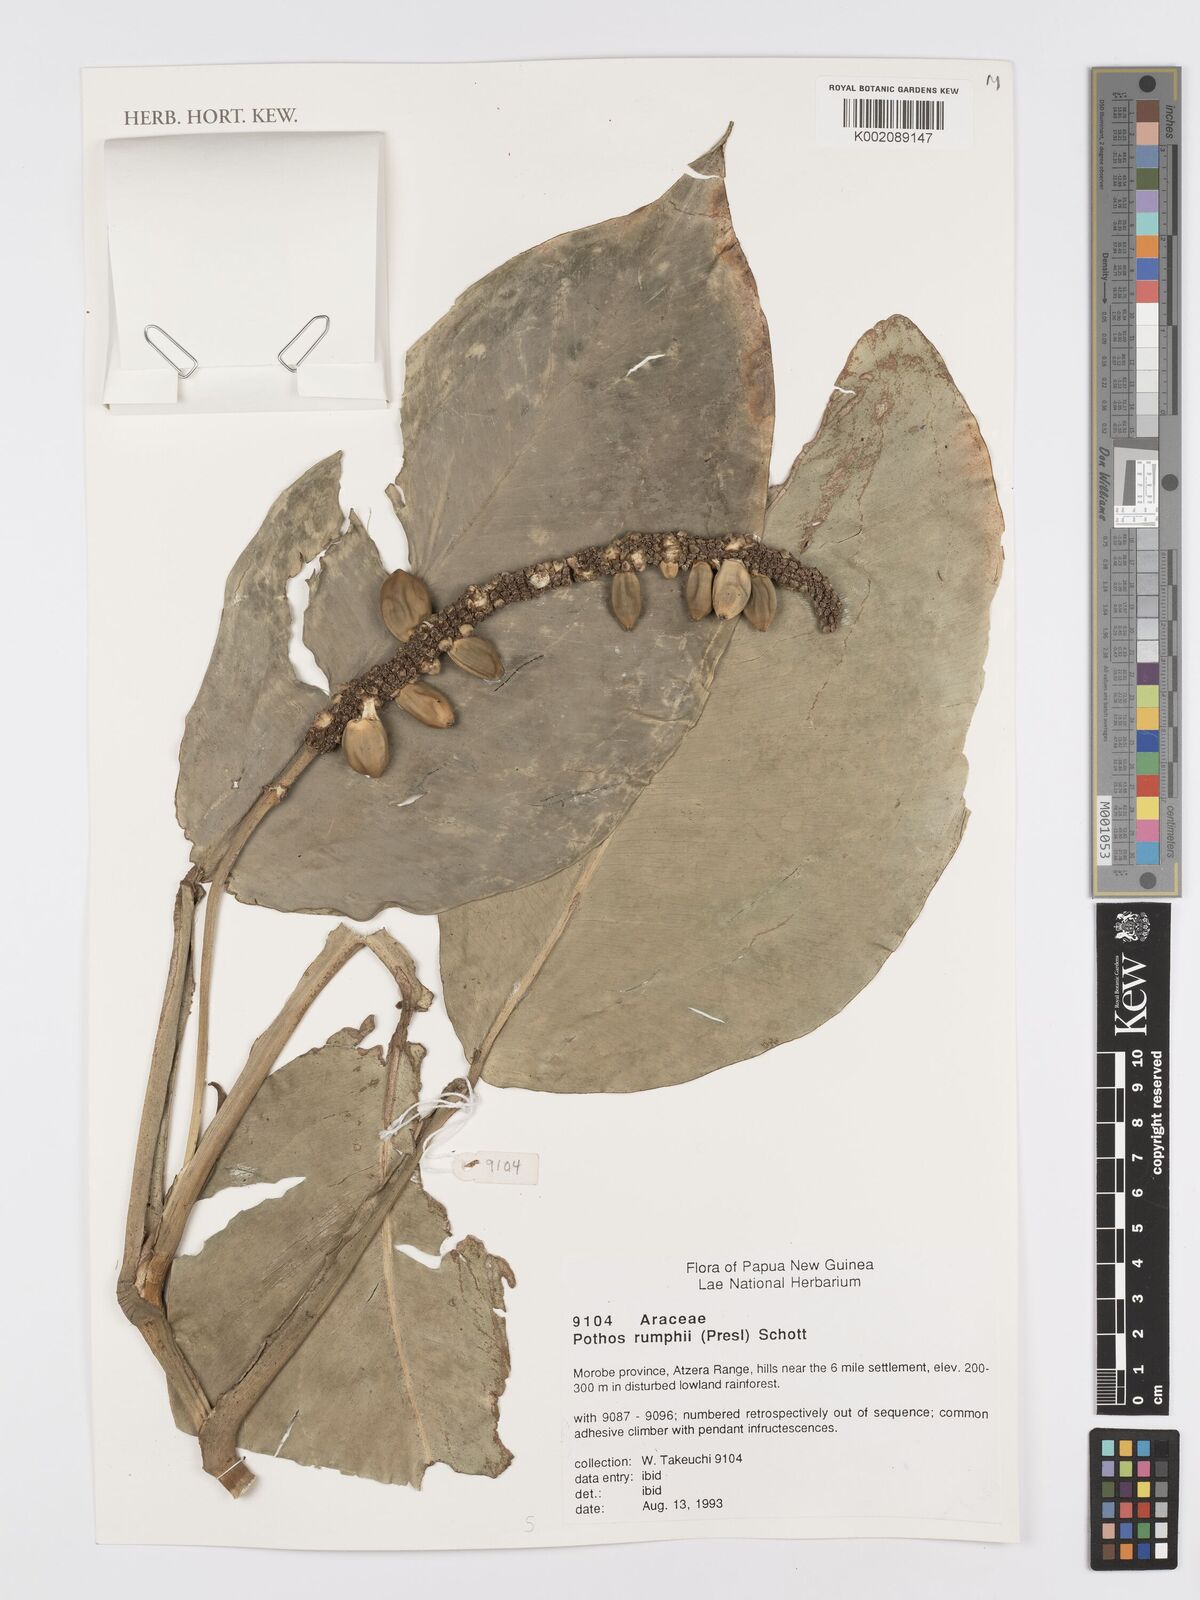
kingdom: Plantae
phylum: Tracheophyta
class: Liliopsida
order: Alismatales
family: Araceae
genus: Pothos
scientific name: Pothos tener
